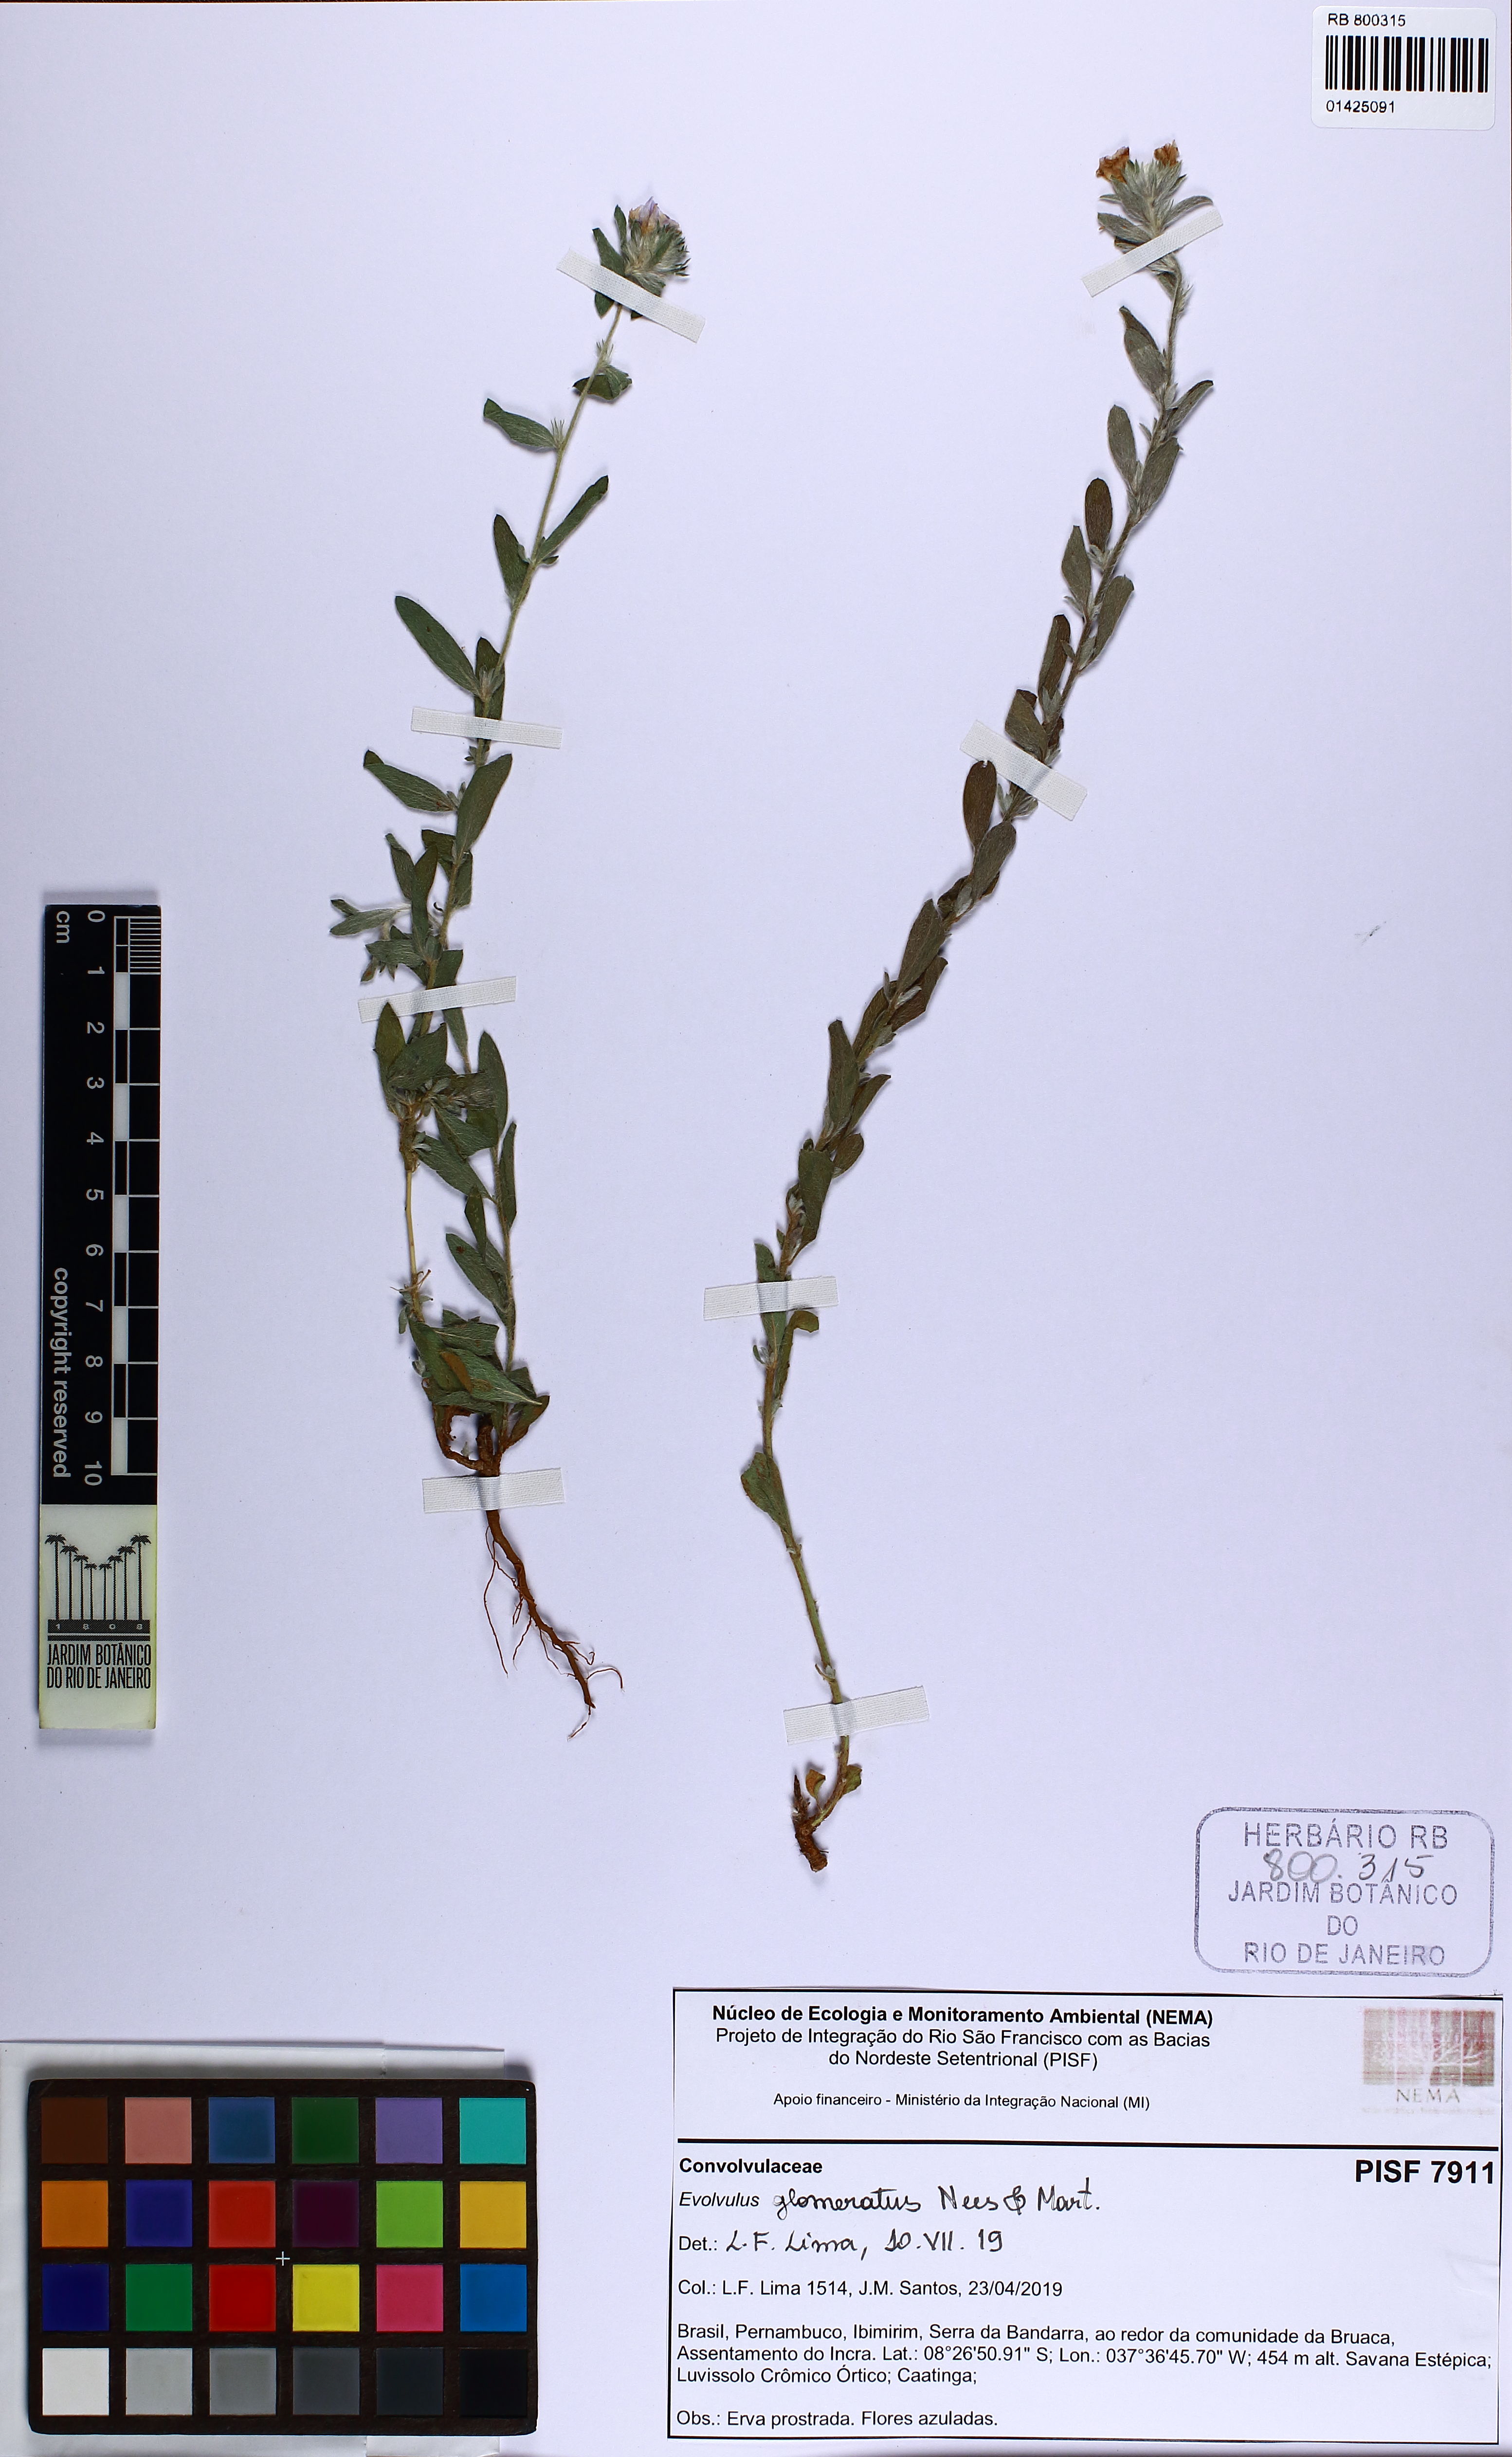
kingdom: Plantae
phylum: Tracheophyta
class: Magnoliopsida
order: Solanales
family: Convolvulaceae
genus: Evolvulus
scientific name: Evolvulus glomeratus
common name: Brazilian dwarf morning-glory
